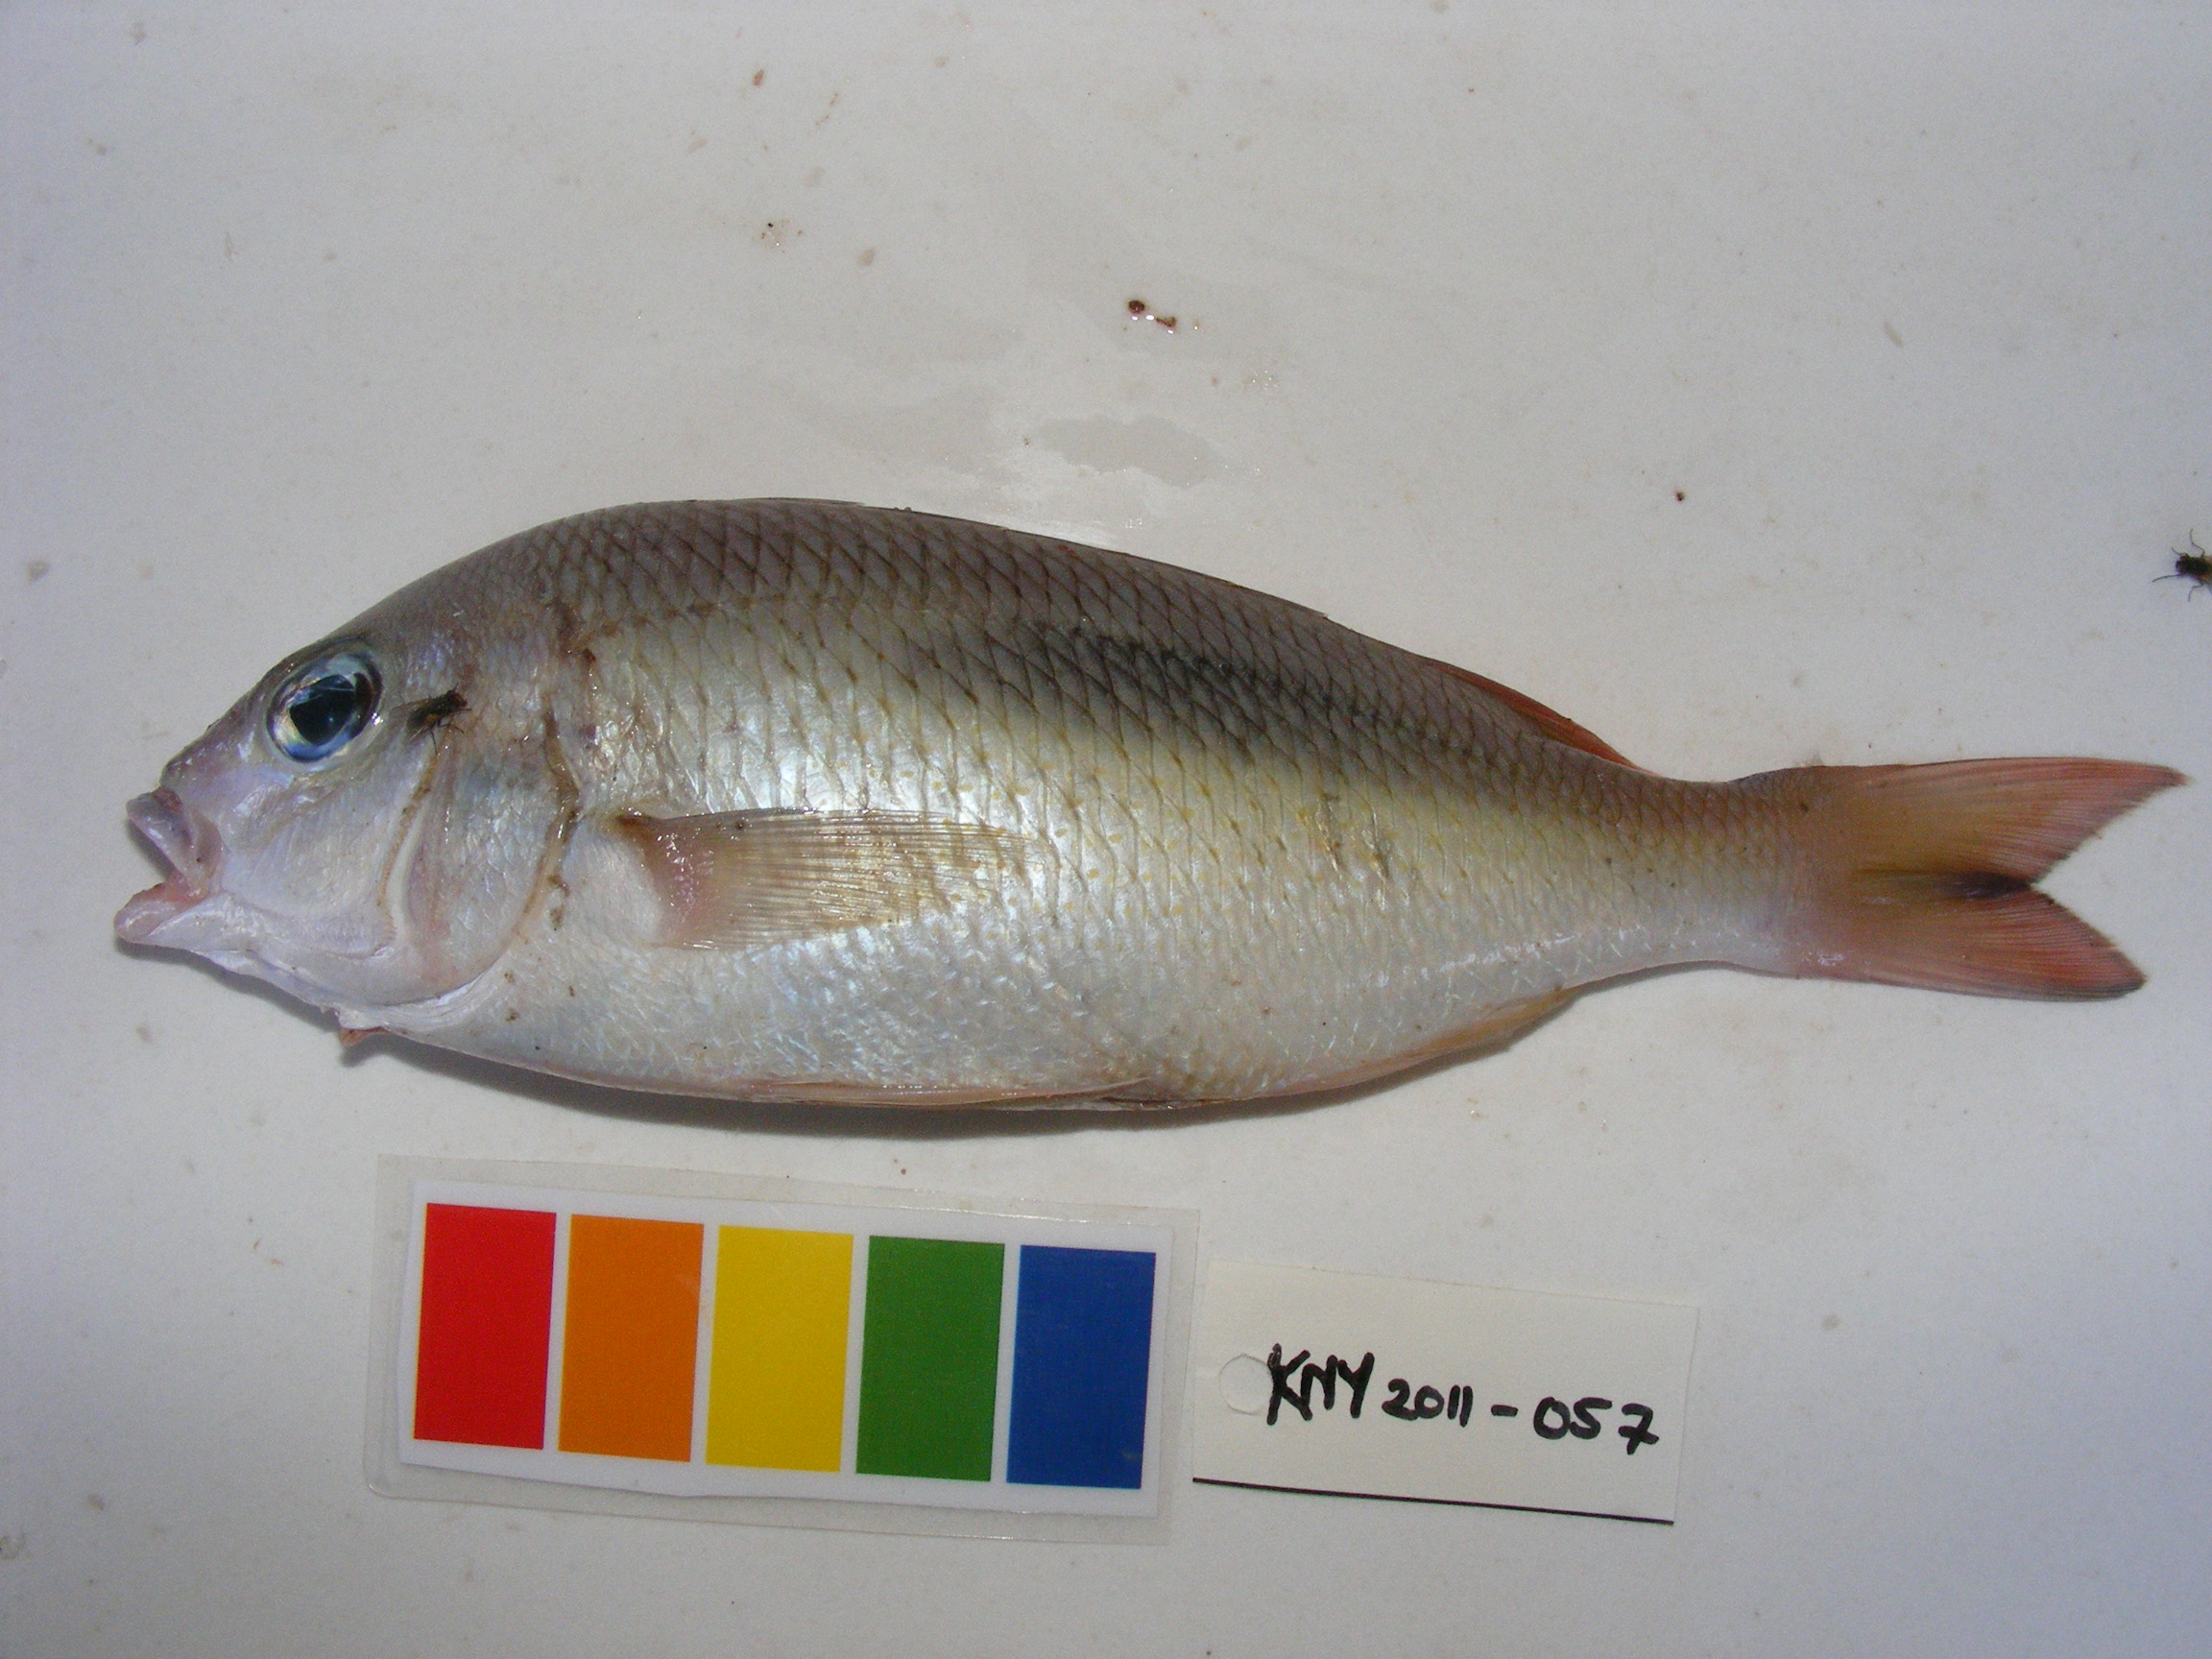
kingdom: Animalia
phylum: Chordata
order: Perciformes
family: Nemipteridae
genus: Scolopsis
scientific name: Scolopsis bimaculata
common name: Thumbprint monocle bream
